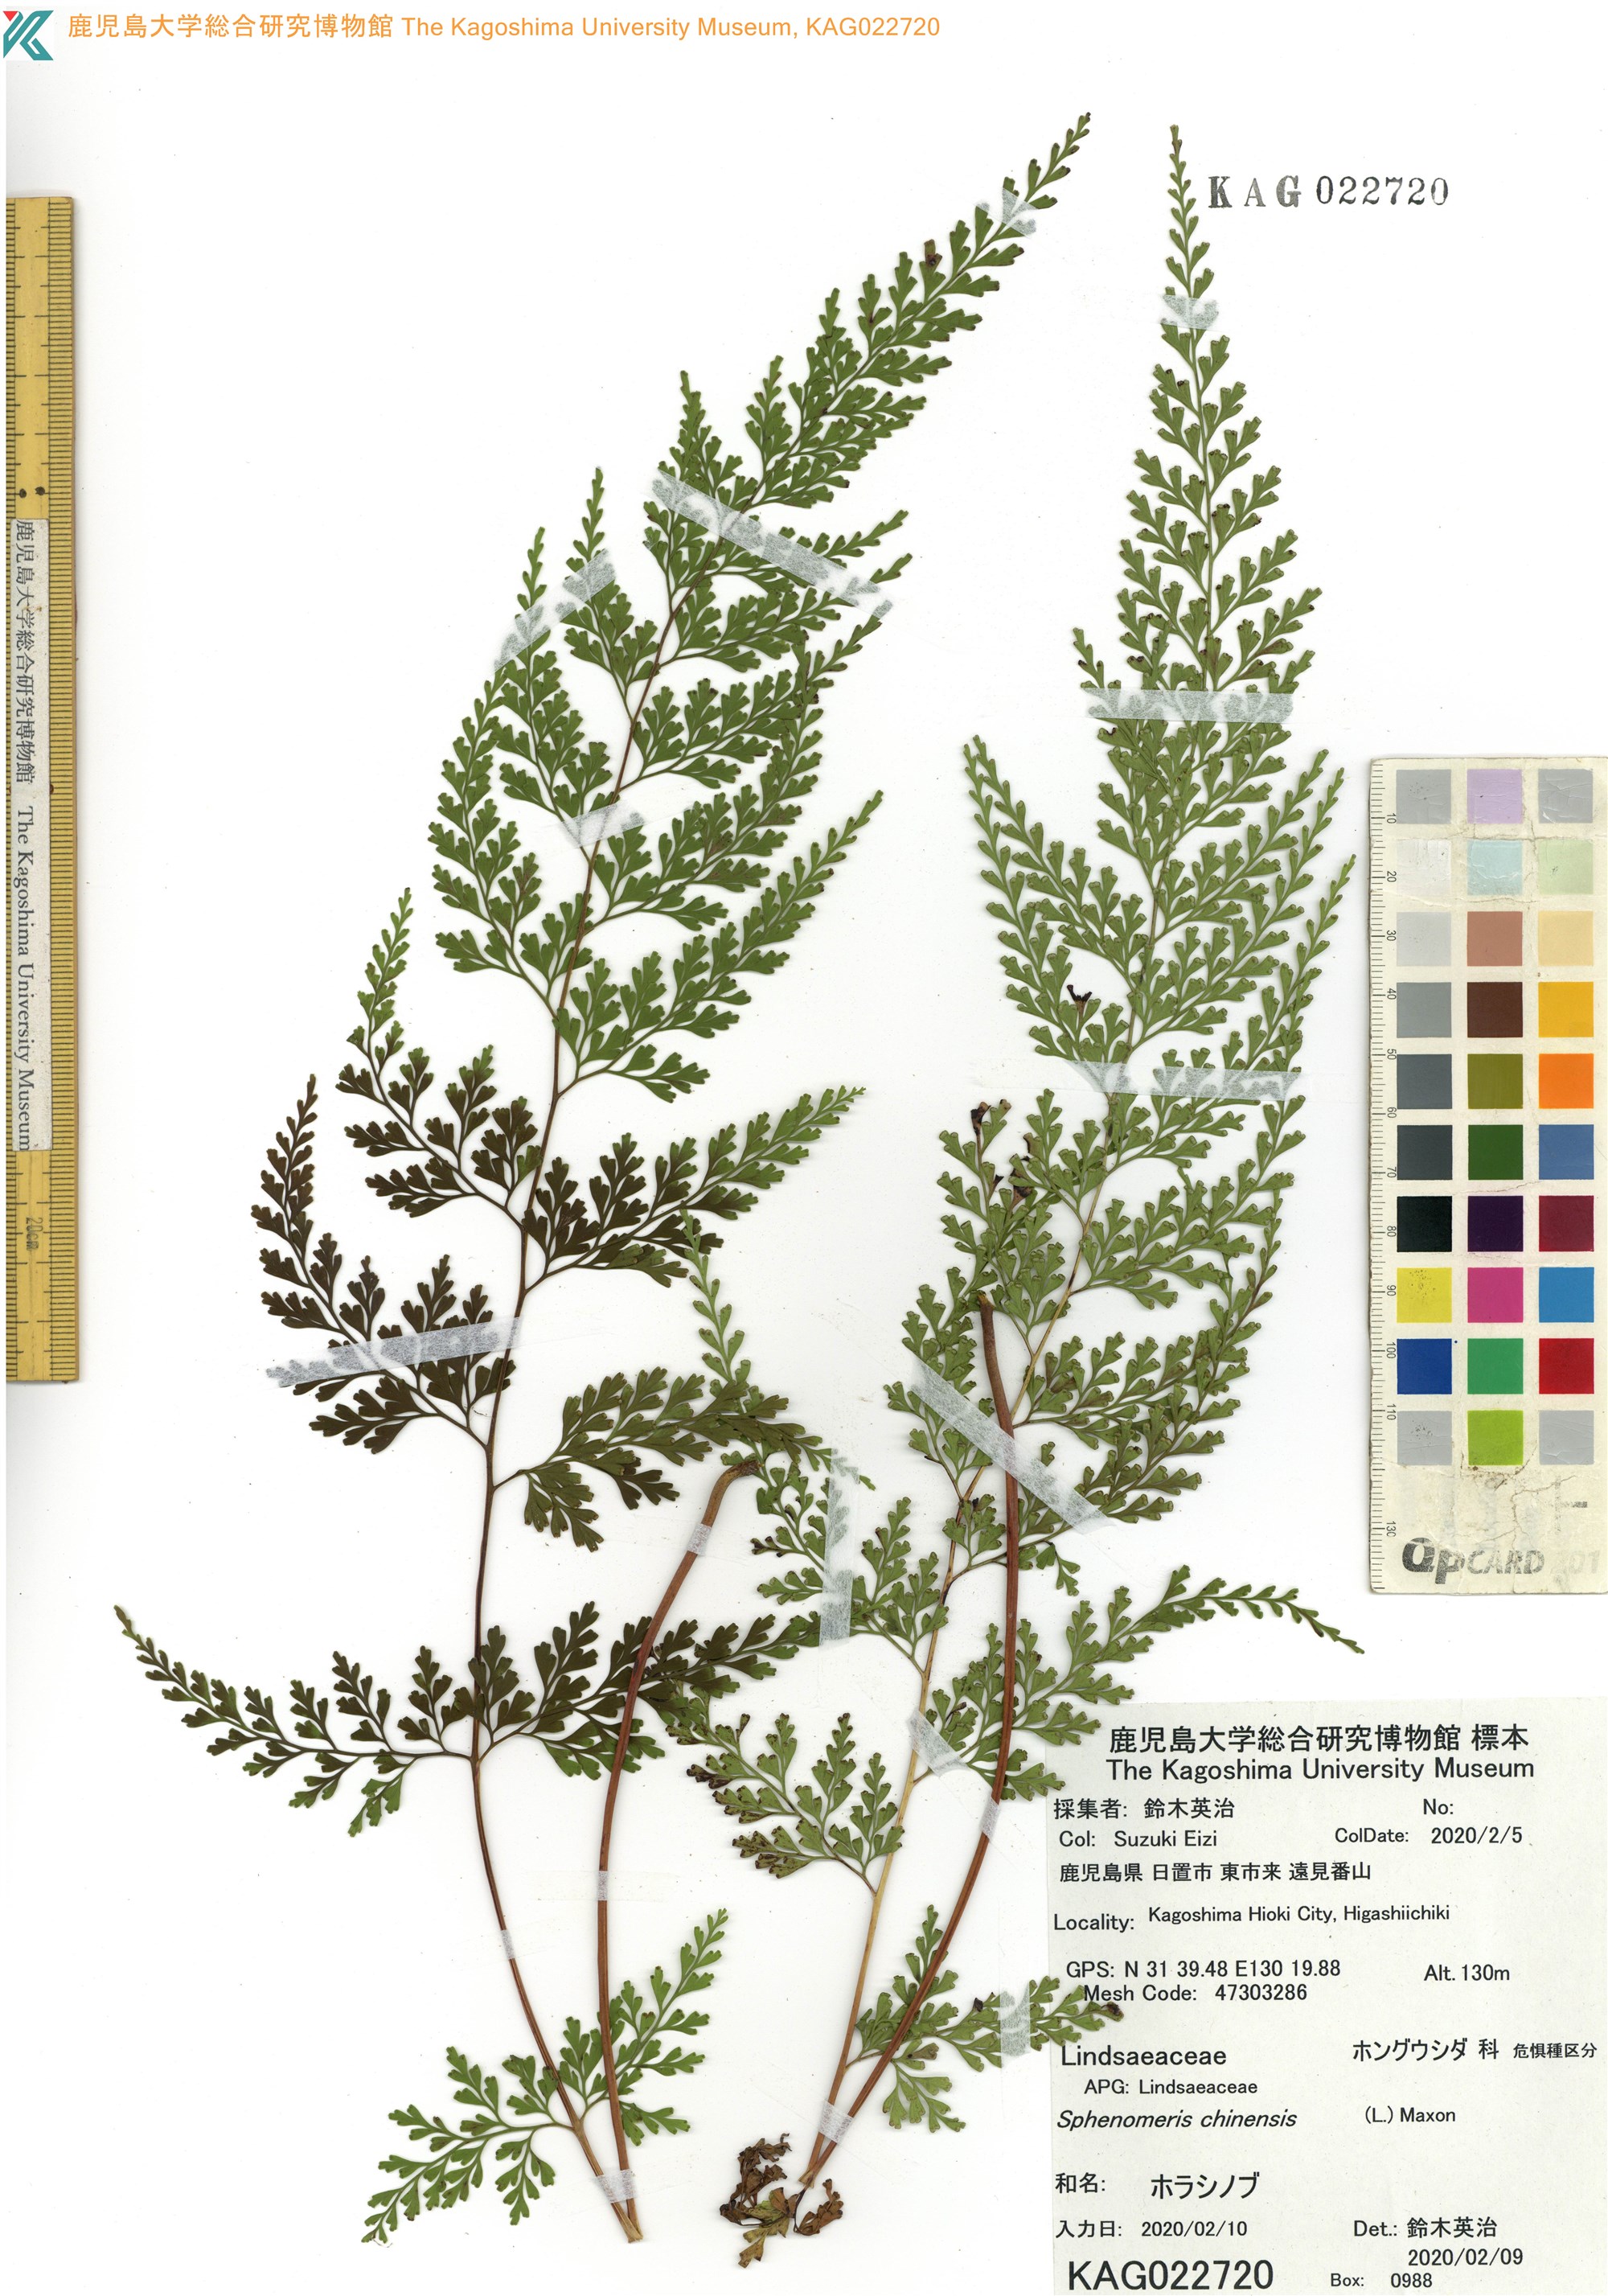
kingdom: Plantae
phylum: Tracheophyta
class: Polypodiopsida
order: Polypodiales
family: Lindsaeaceae
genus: Odontosoria
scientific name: Odontosoria chinensis
